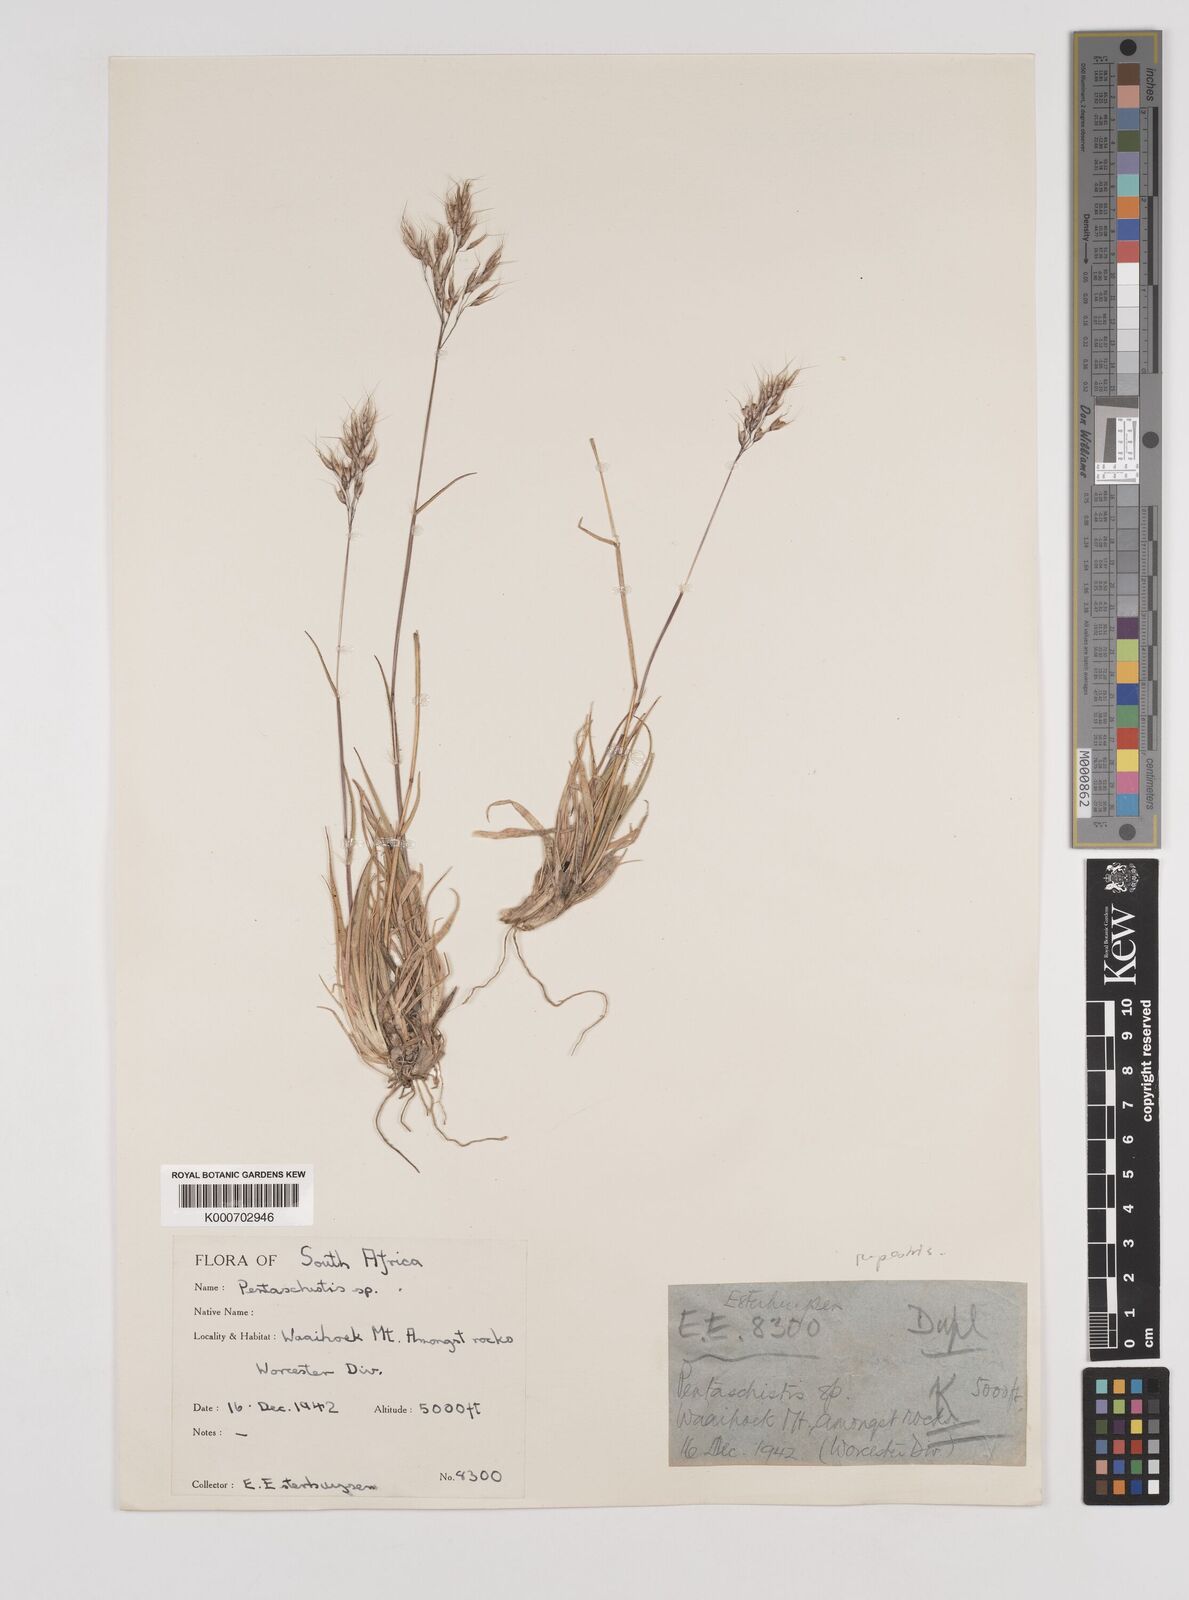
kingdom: Plantae
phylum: Tracheophyta
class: Liliopsida
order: Poales
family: Poaceae
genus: Pentameris
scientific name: Pentameris rupestris
